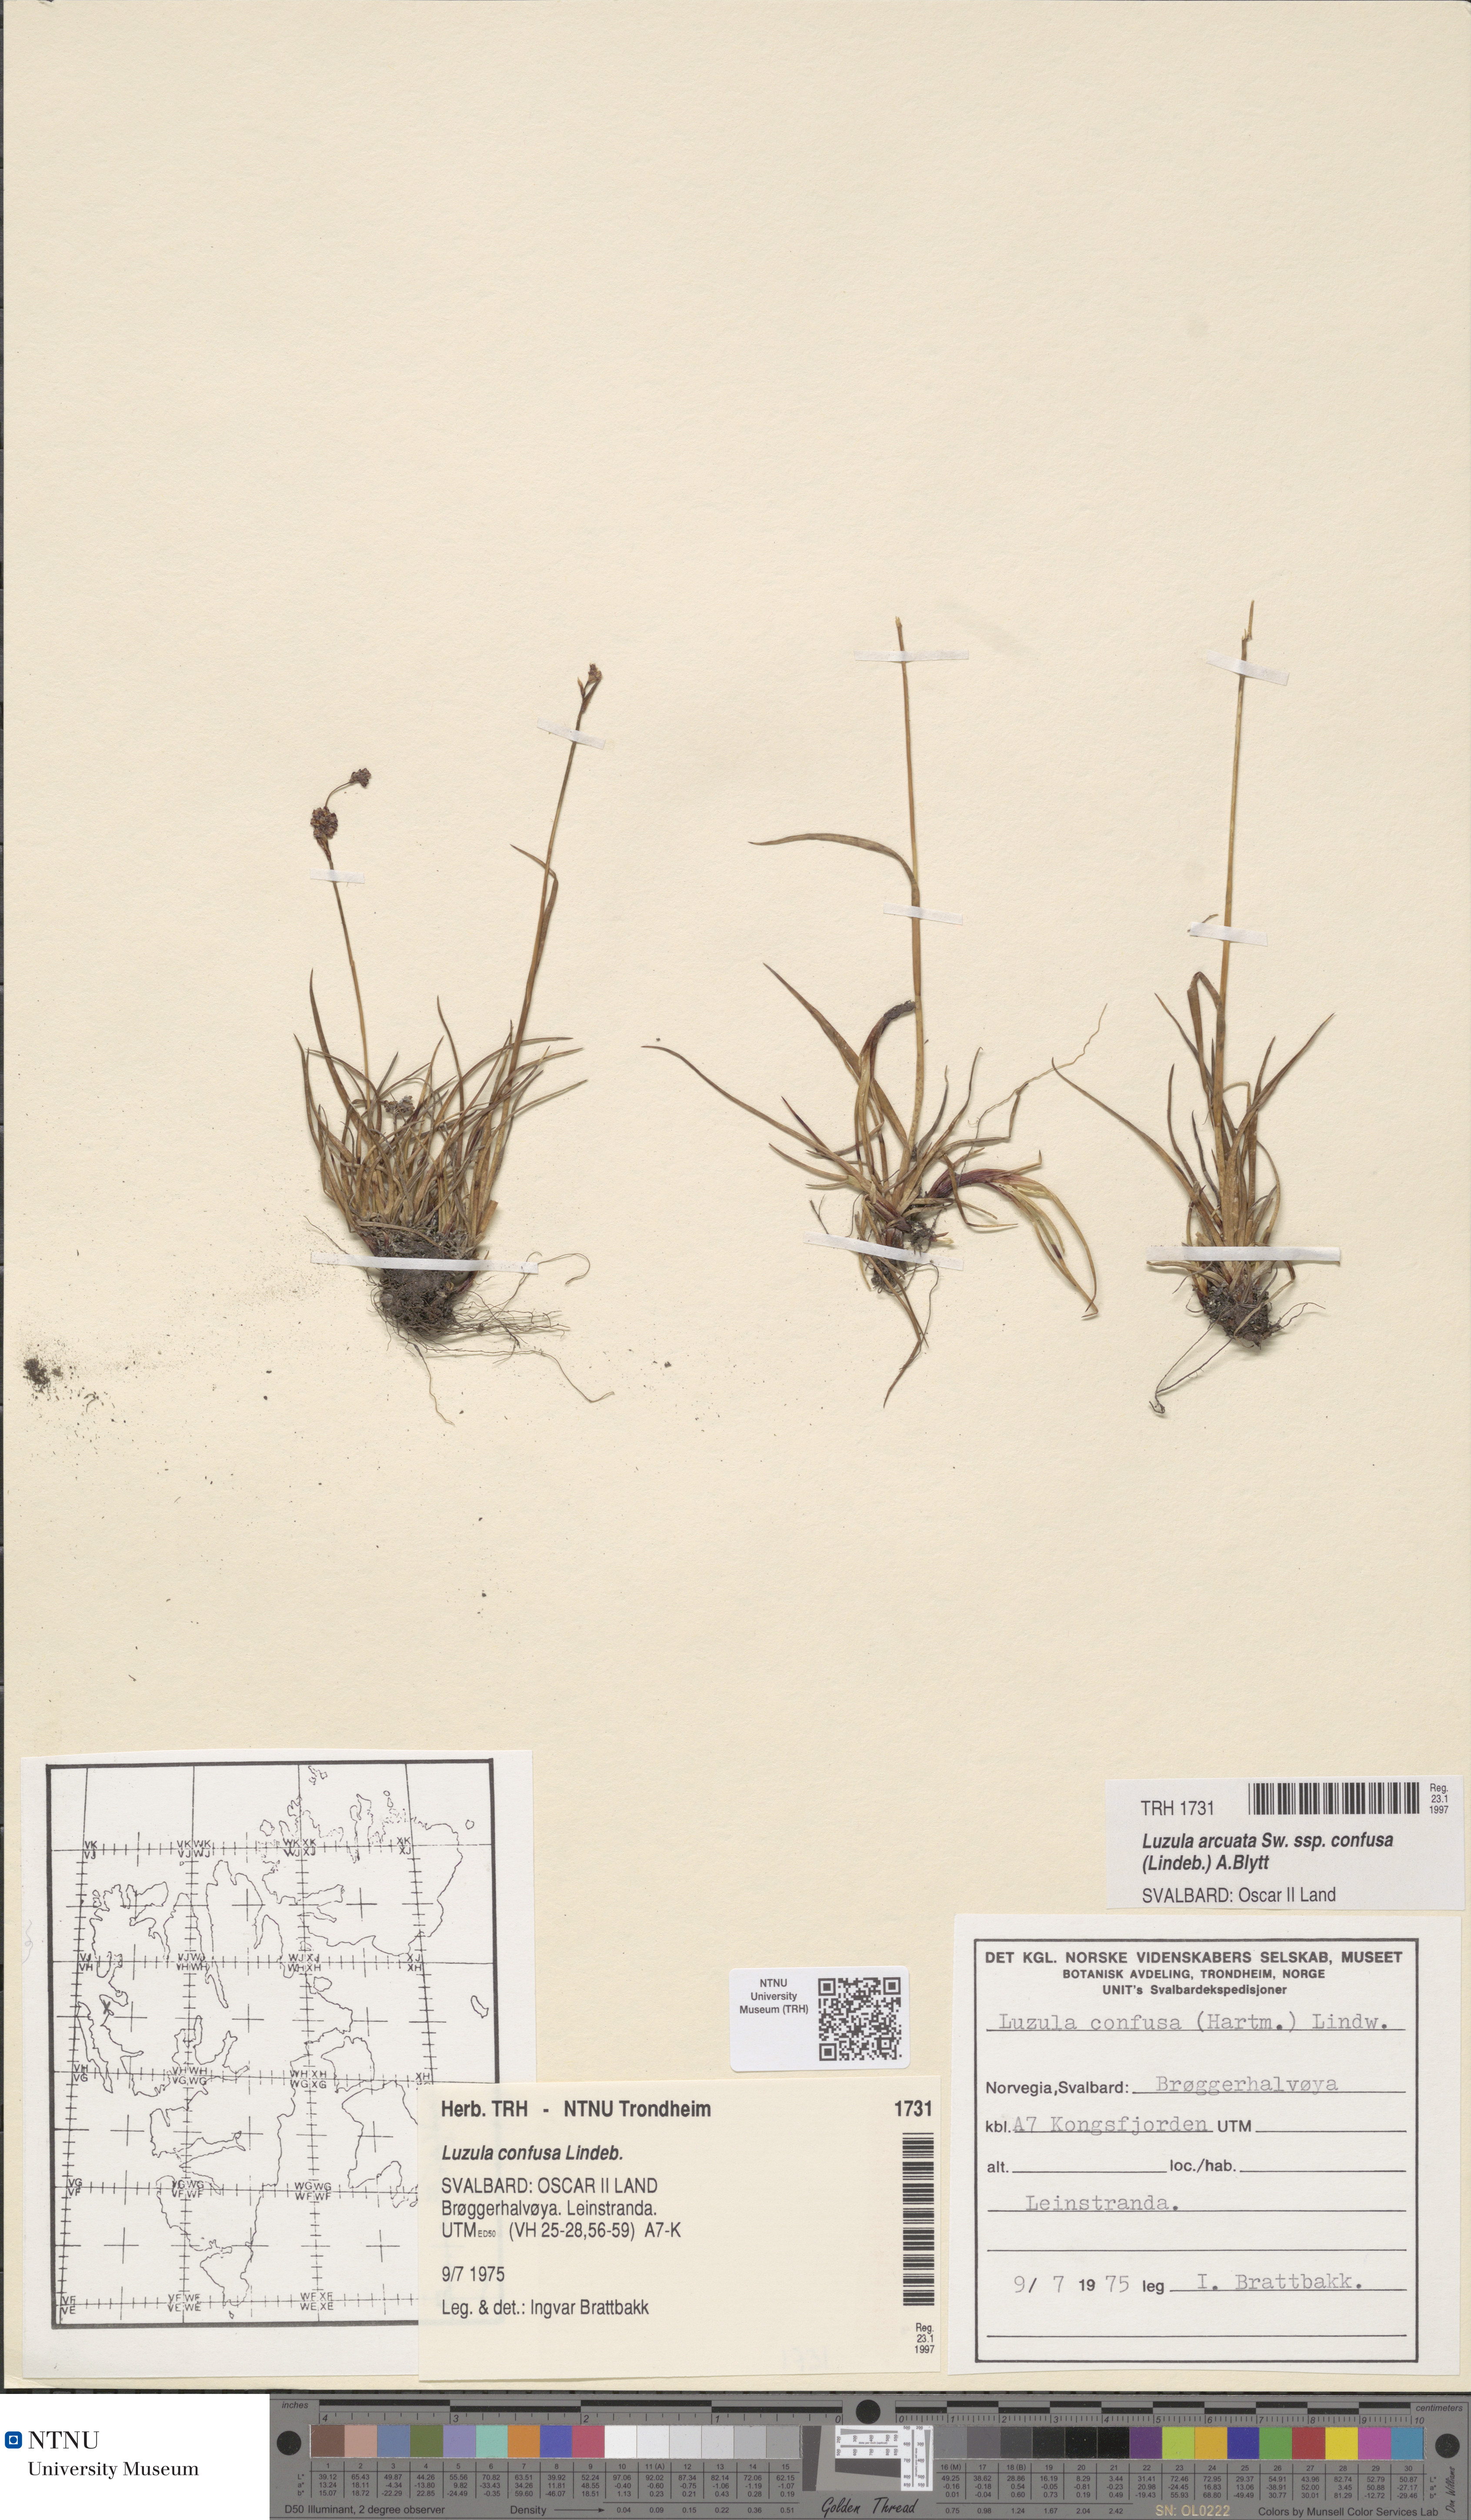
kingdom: Plantae
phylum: Tracheophyta
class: Liliopsida
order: Poales
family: Juncaceae
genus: Luzula
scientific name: Luzula confusa
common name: Northern wood rush
